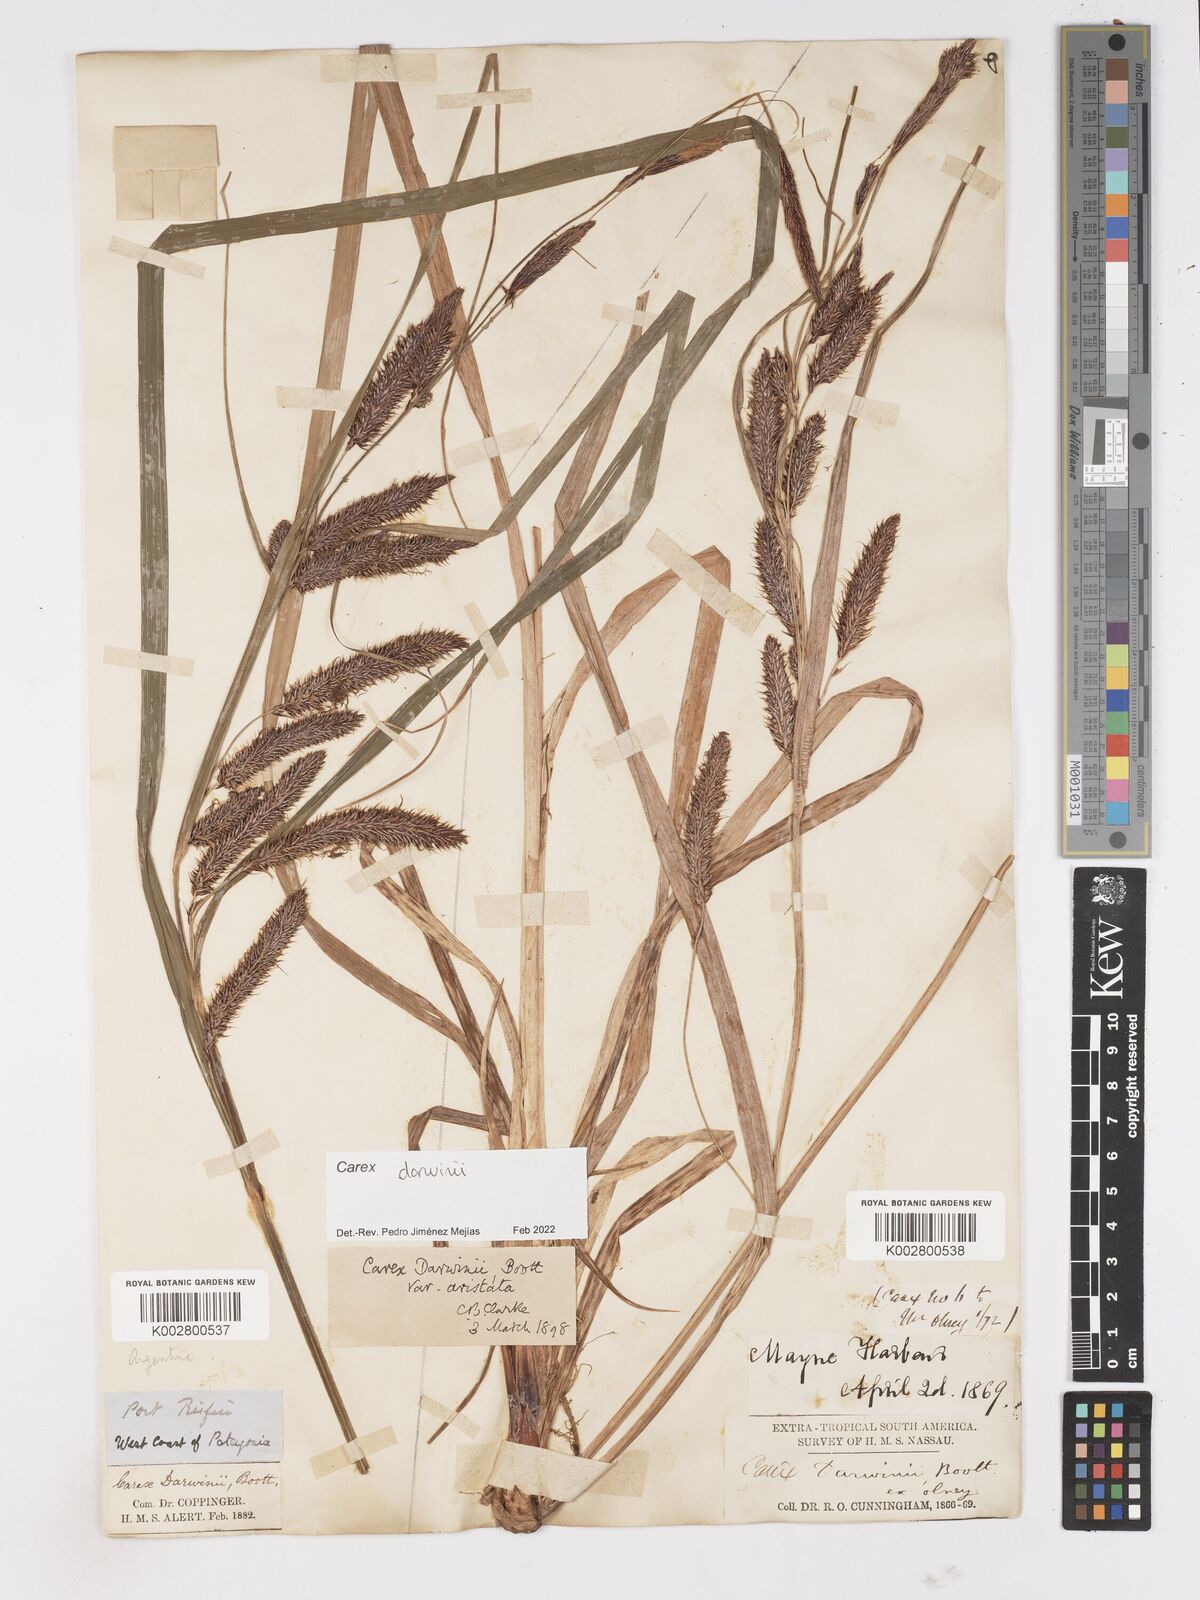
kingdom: Plantae
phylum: Tracheophyta
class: Liliopsida
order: Poales
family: Cyperaceae
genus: Carex
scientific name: Carex darwinii
